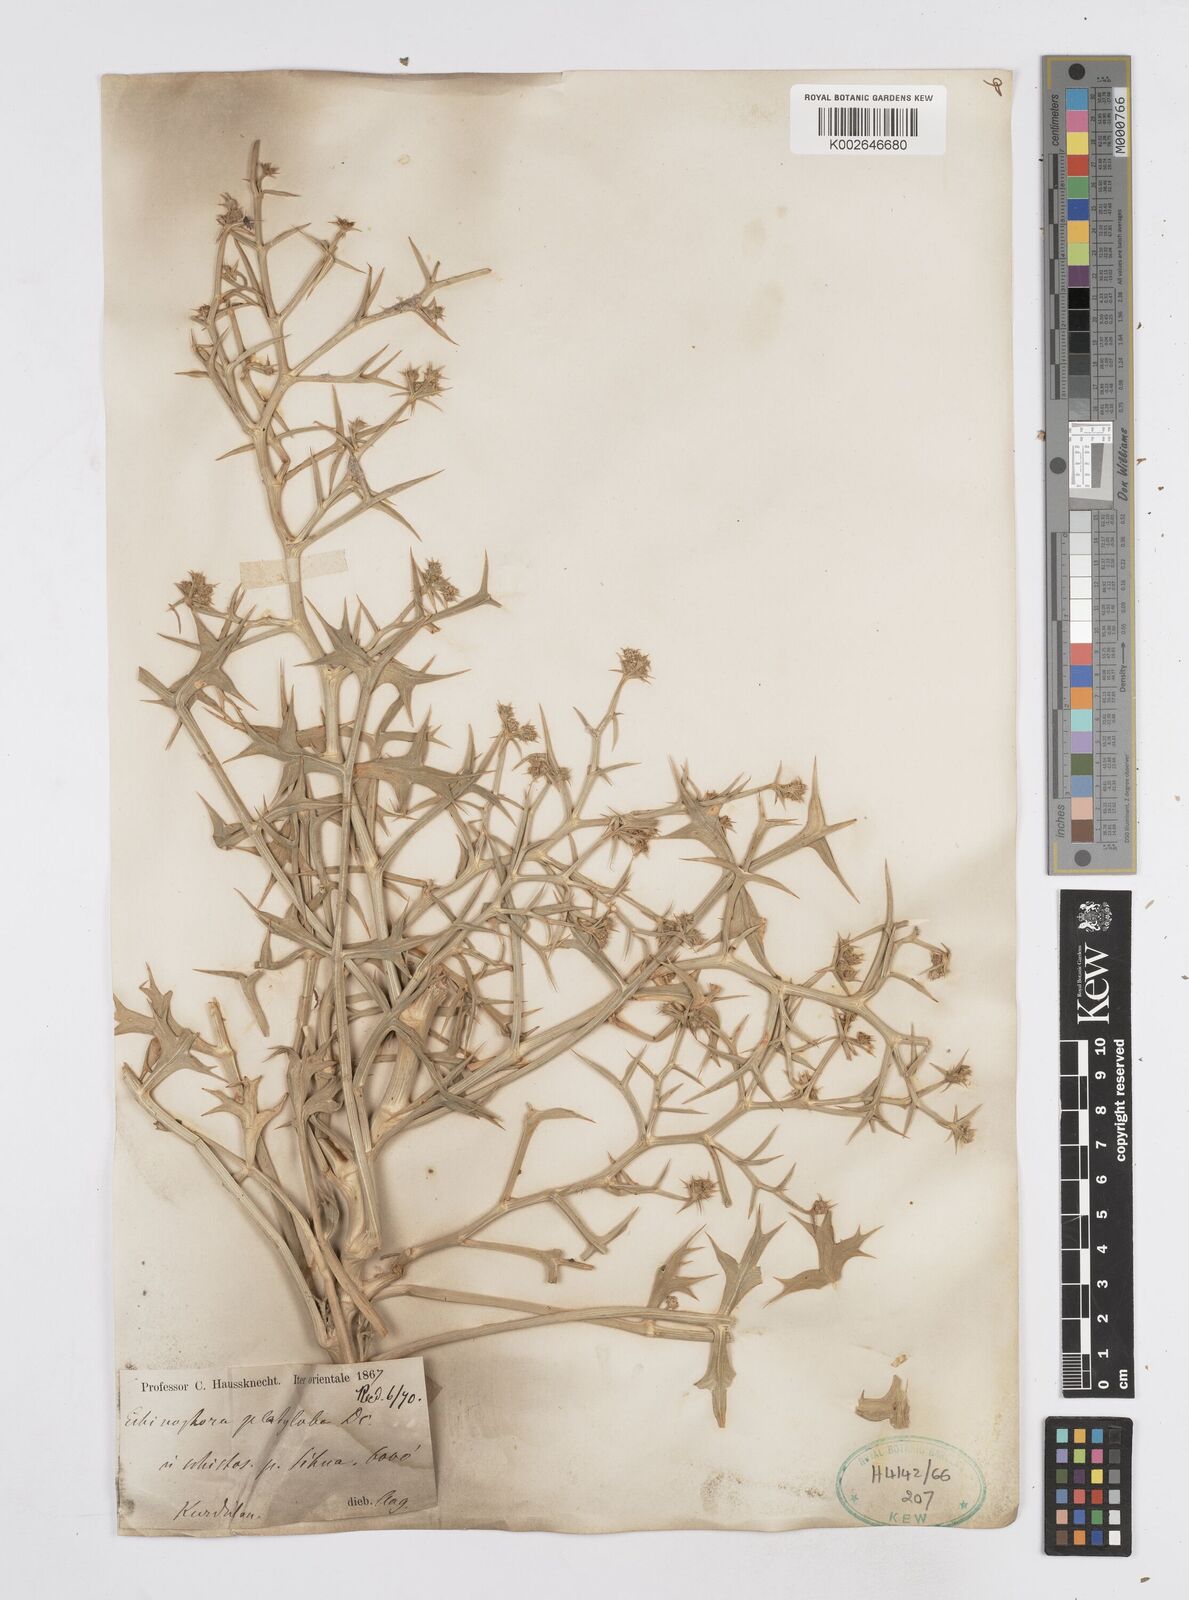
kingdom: Plantae
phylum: Tracheophyta
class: Magnoliopsida
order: Apiales
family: Apiaceae
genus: Echinophora
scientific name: Echinophora platyloba
